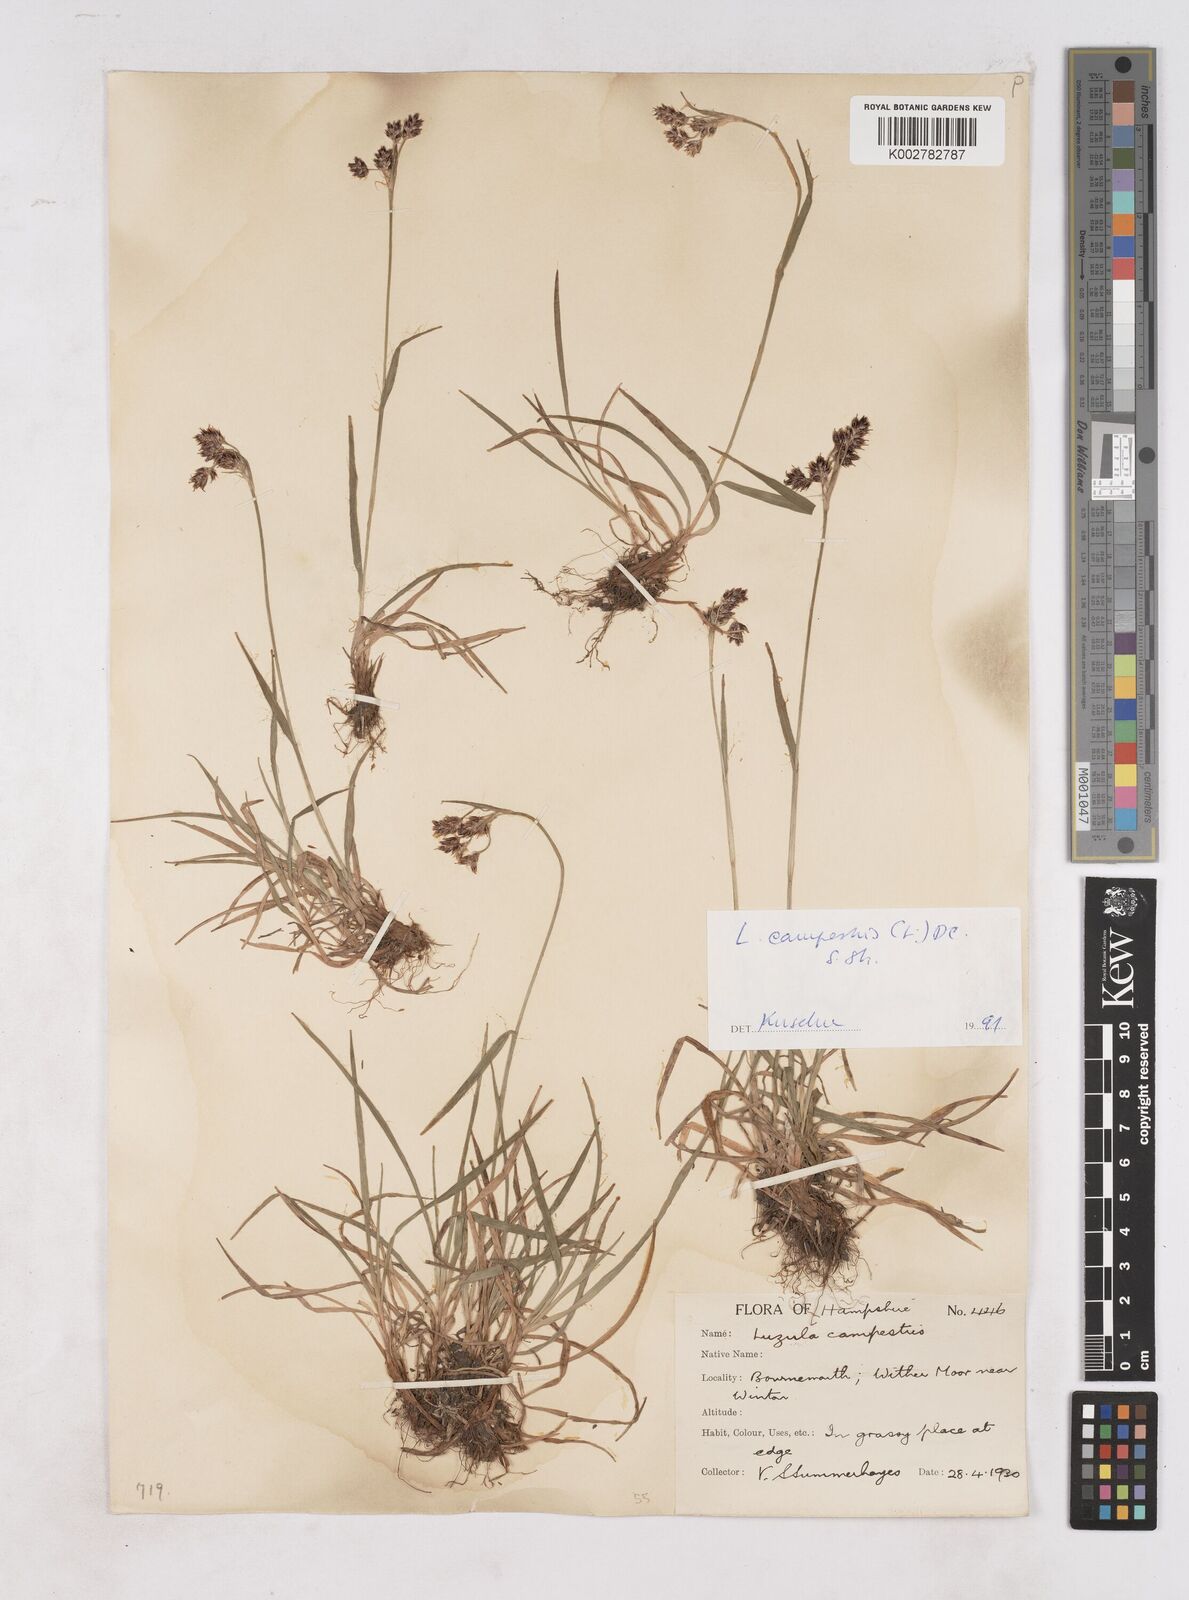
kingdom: Plantae
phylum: Tracheophyta
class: Liliopsida
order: Poales
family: Juncaceae
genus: Luzula
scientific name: Luzula campestris
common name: Field wood-rush
